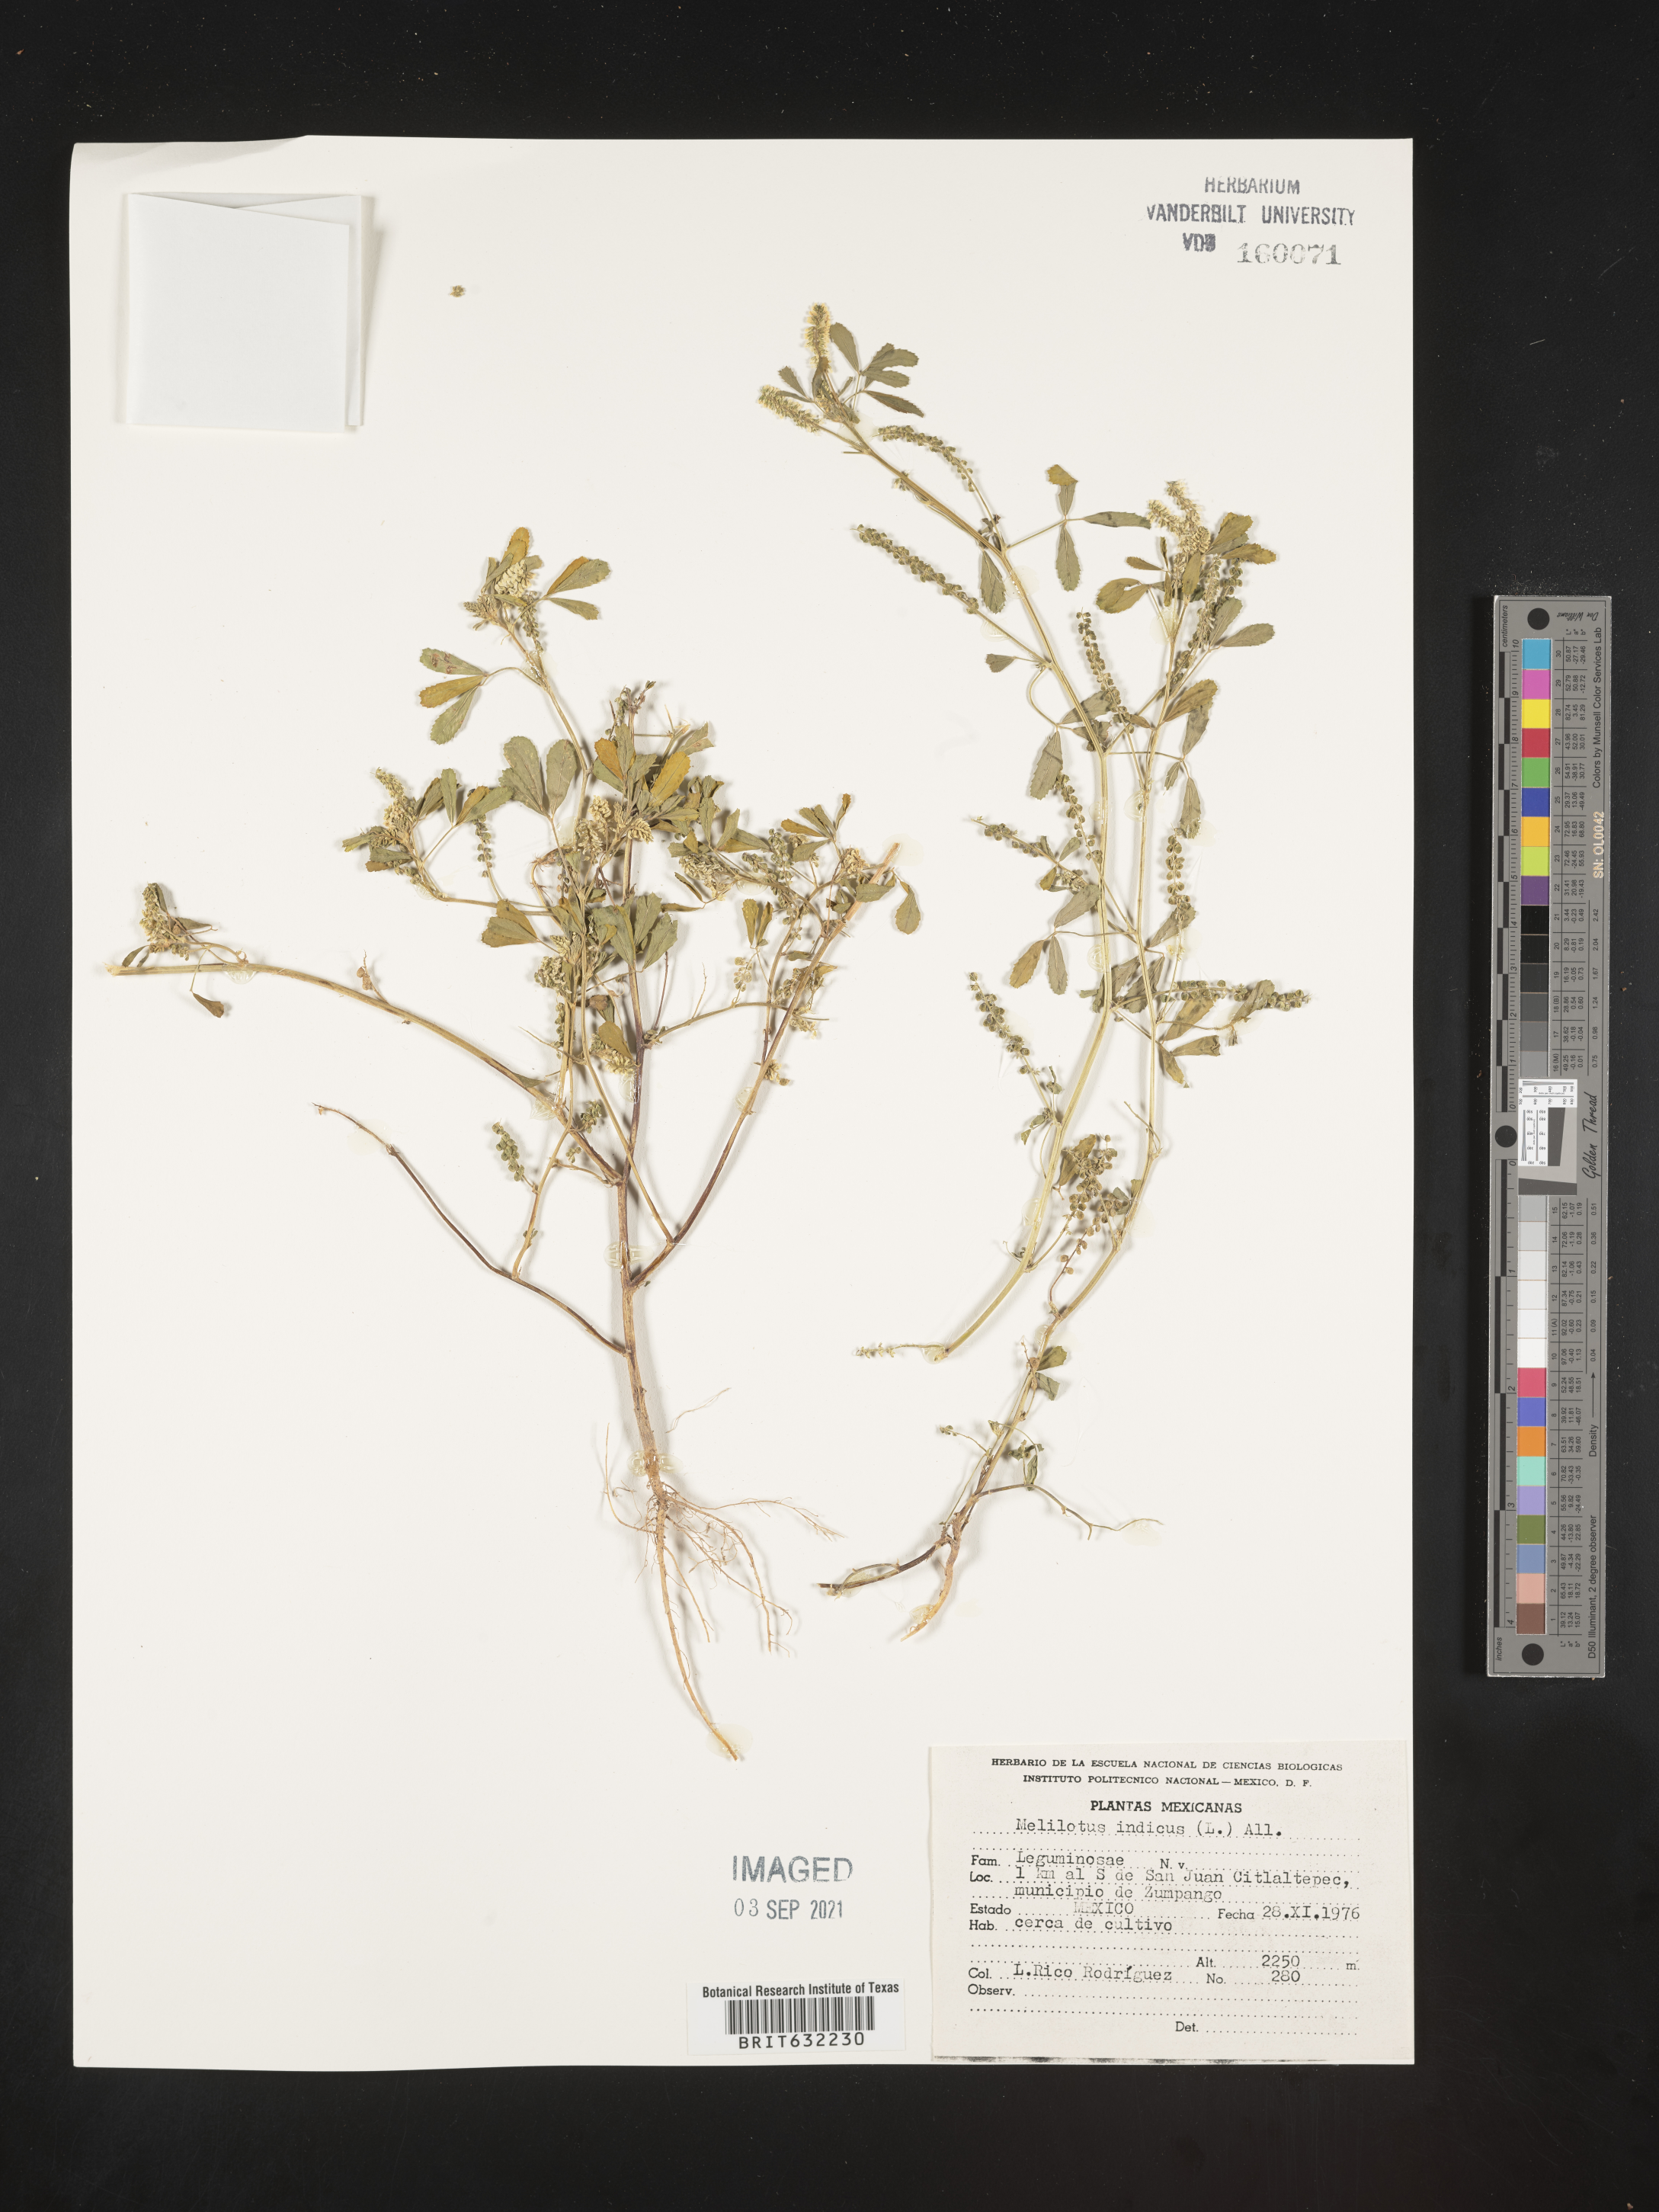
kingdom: Plantae
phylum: Tracheophyta
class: Magnoliopsida
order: Fabales
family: Fabaceae
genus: Melilotus
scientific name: Melilotus
